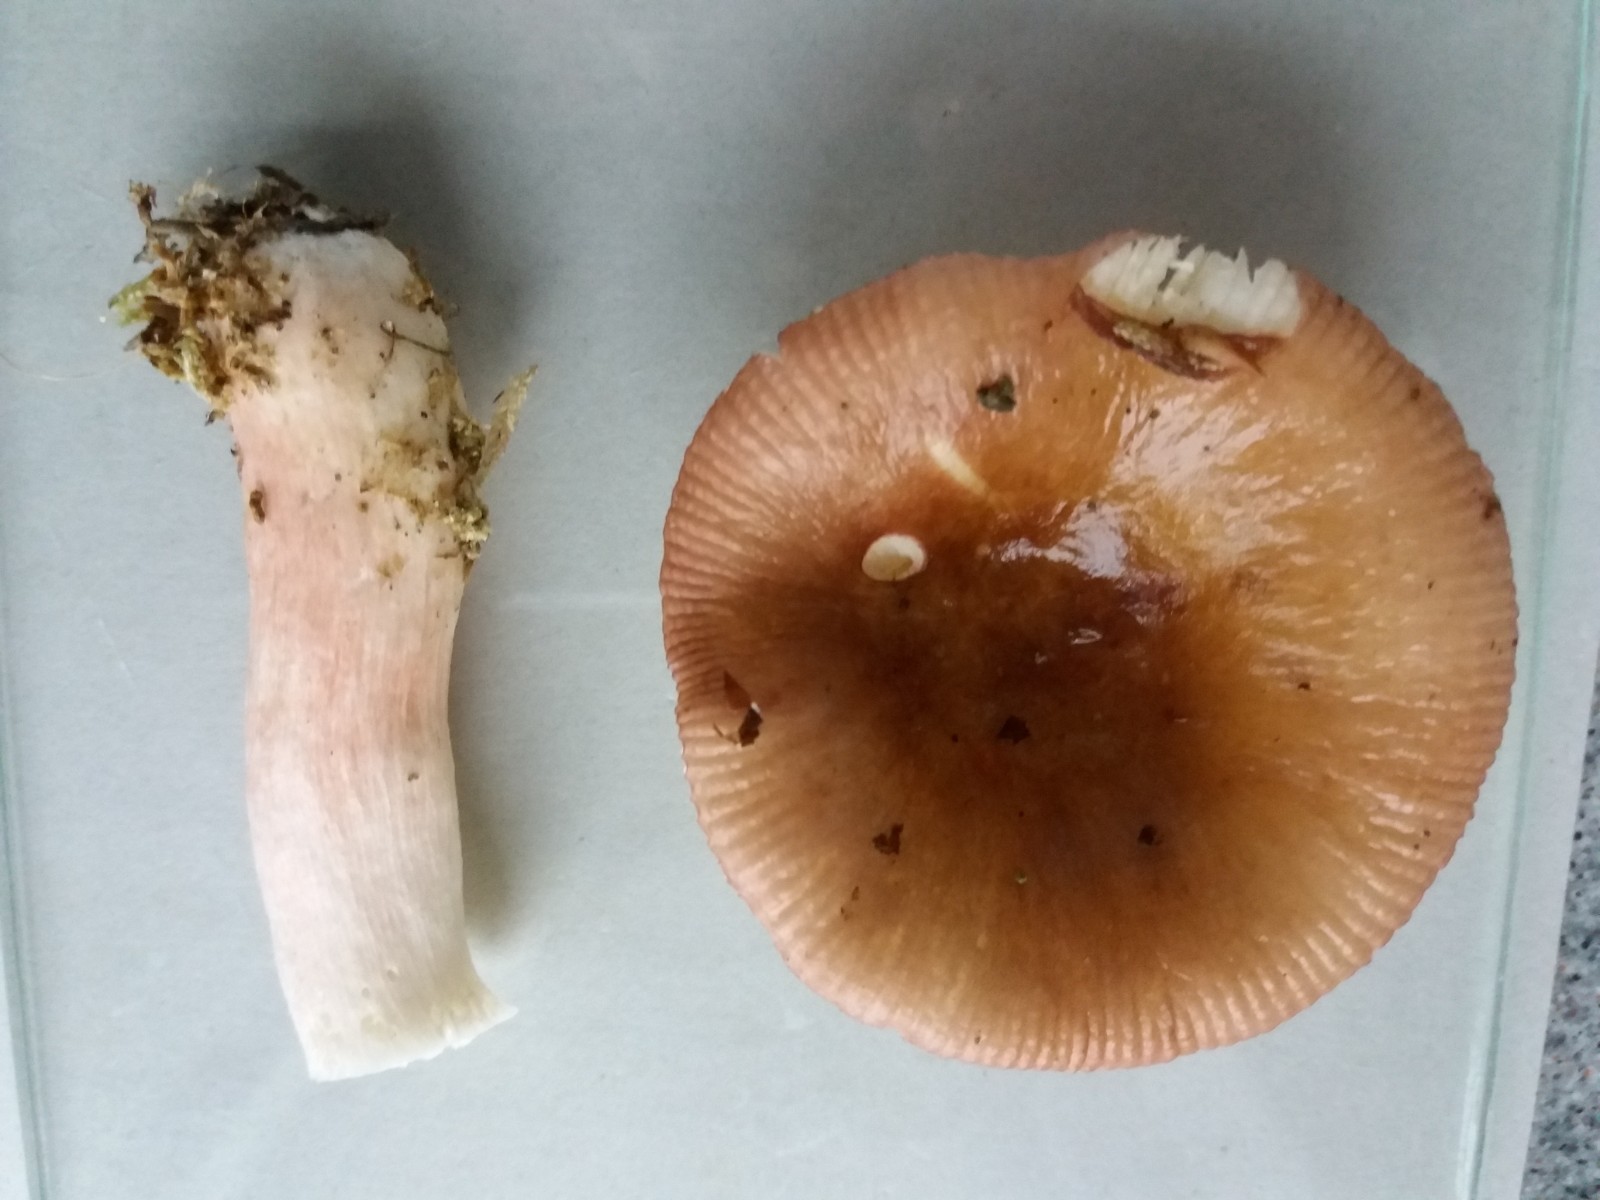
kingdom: Fungi
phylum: Basidiomycota
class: Agaricomycetes
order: Russulales
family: Russulaceae
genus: Russula
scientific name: Russula nitida
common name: året skørhat
